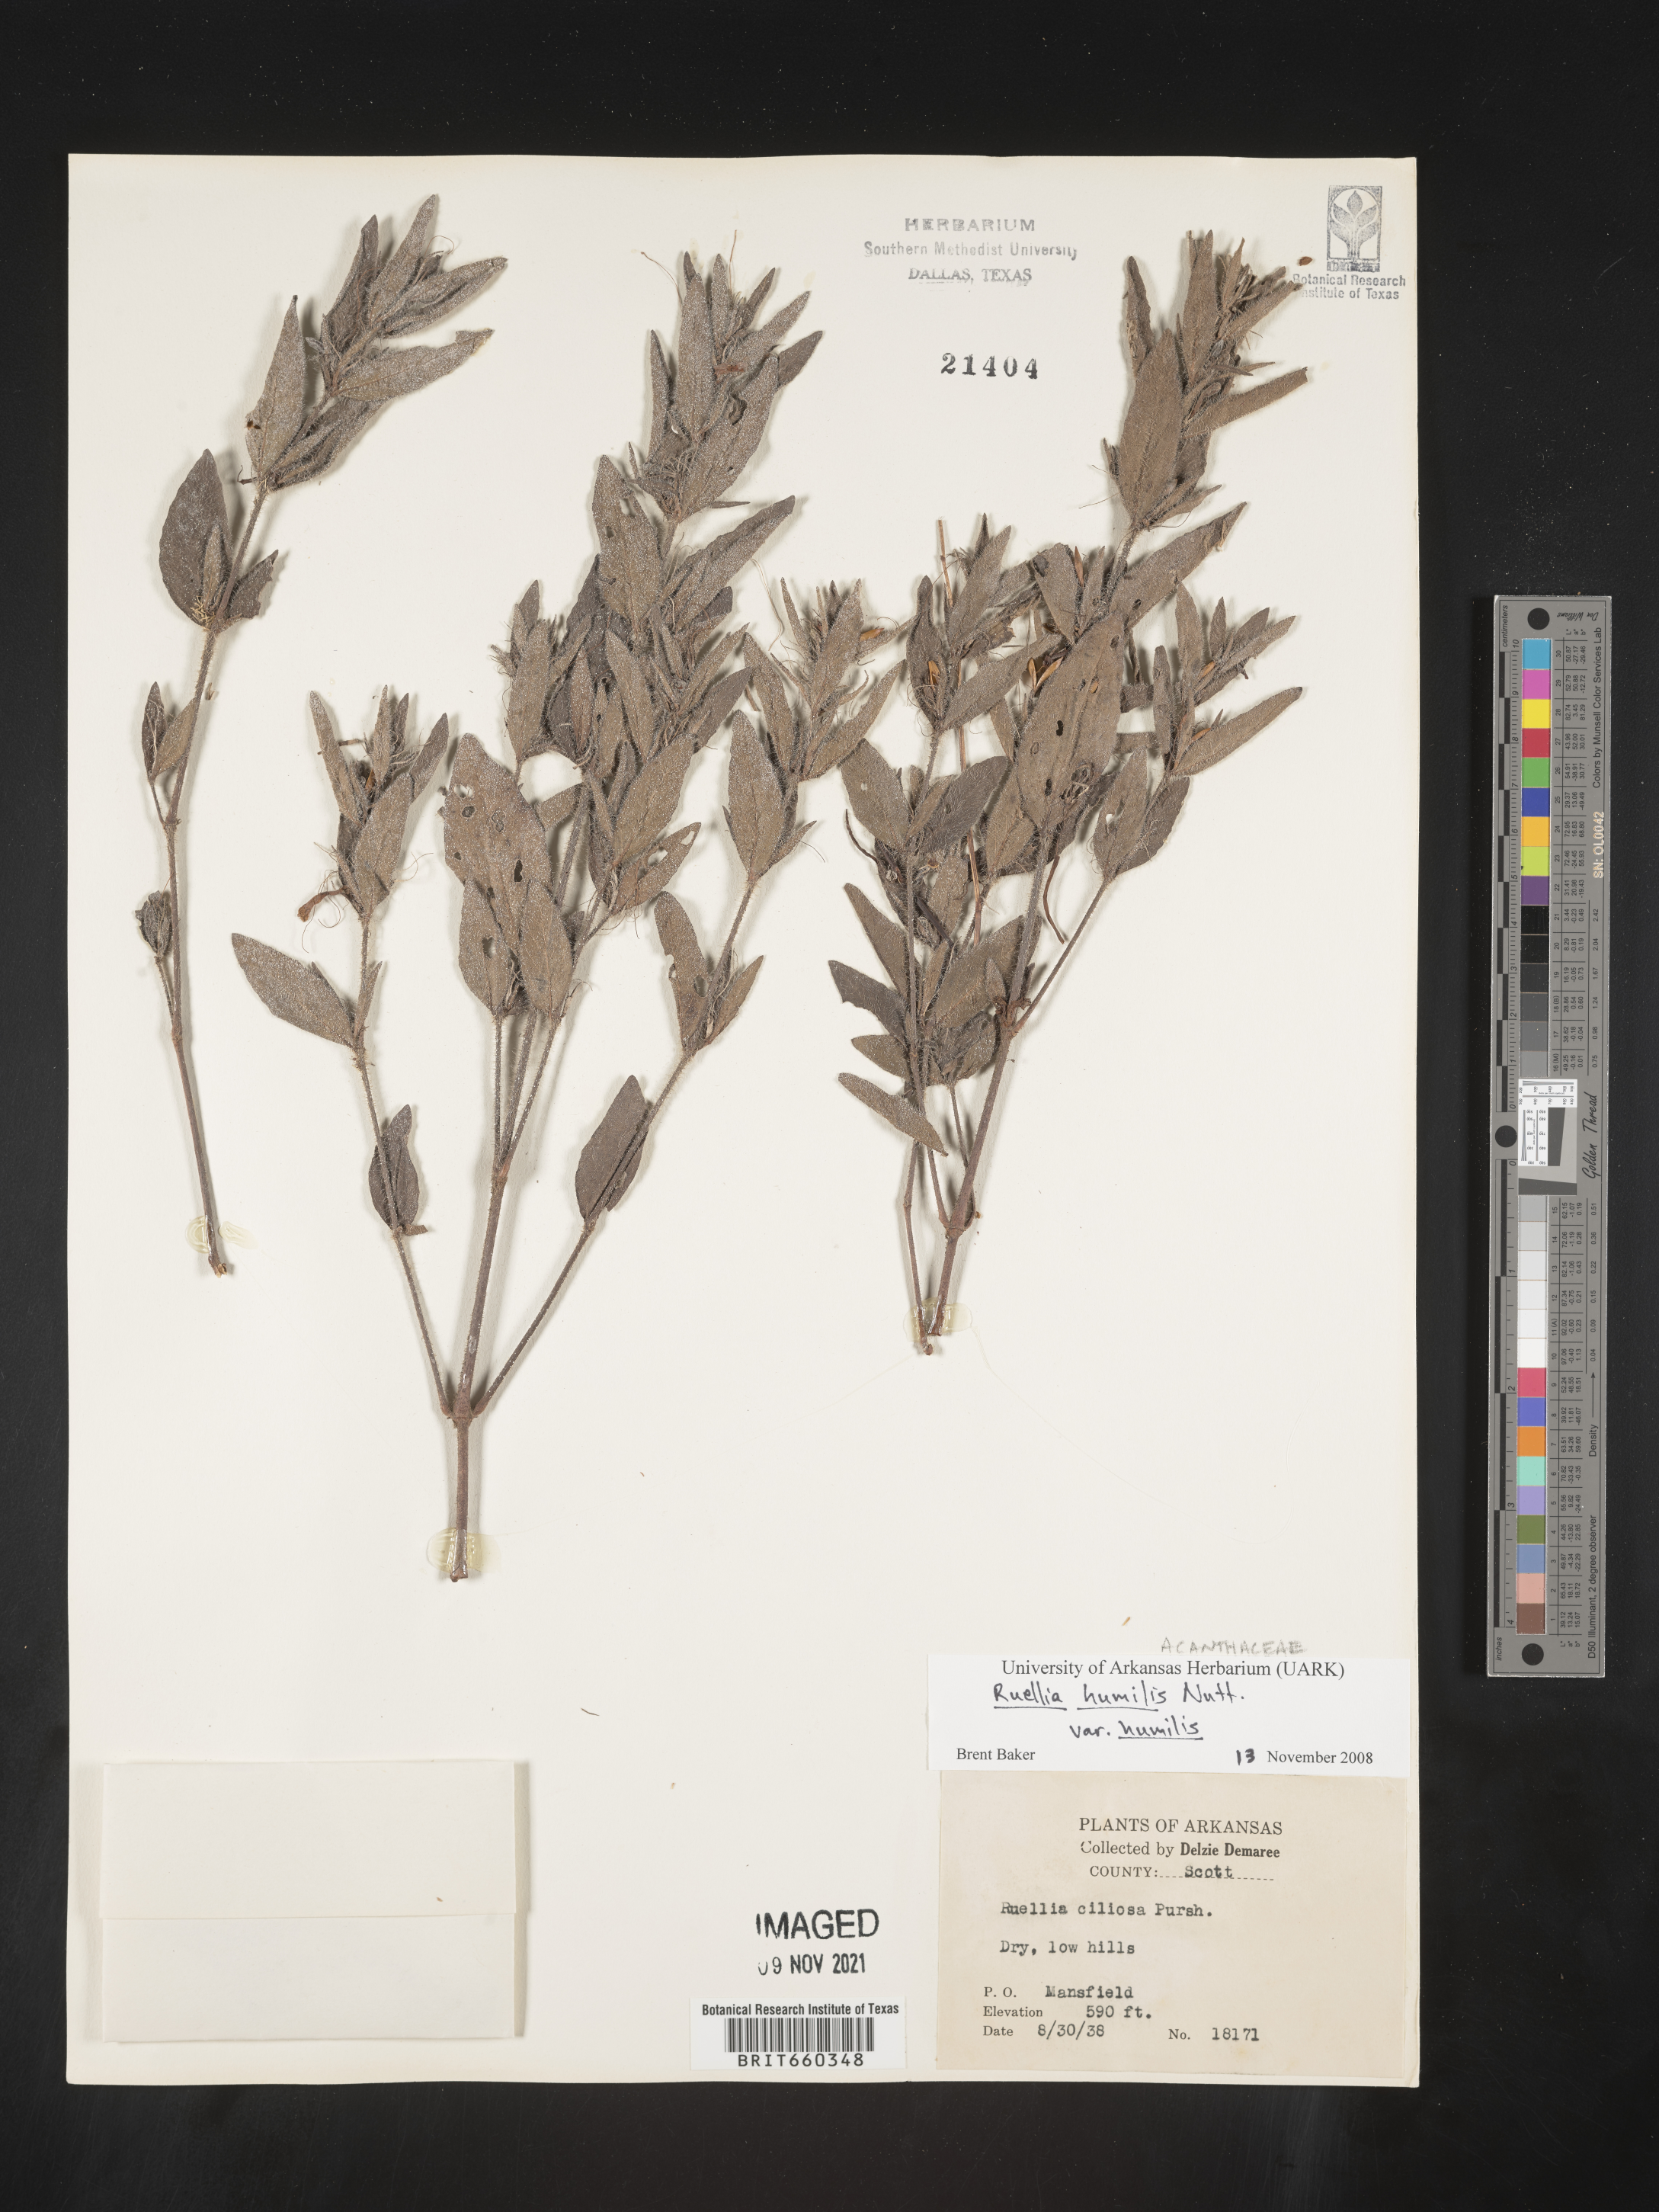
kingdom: Plantae
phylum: Tracheophyta
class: Magnoliopsida
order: Lamiales
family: Acanthaceae
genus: Ruellia
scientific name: Ruellia humilis
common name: Fringe-leaf ruellia
